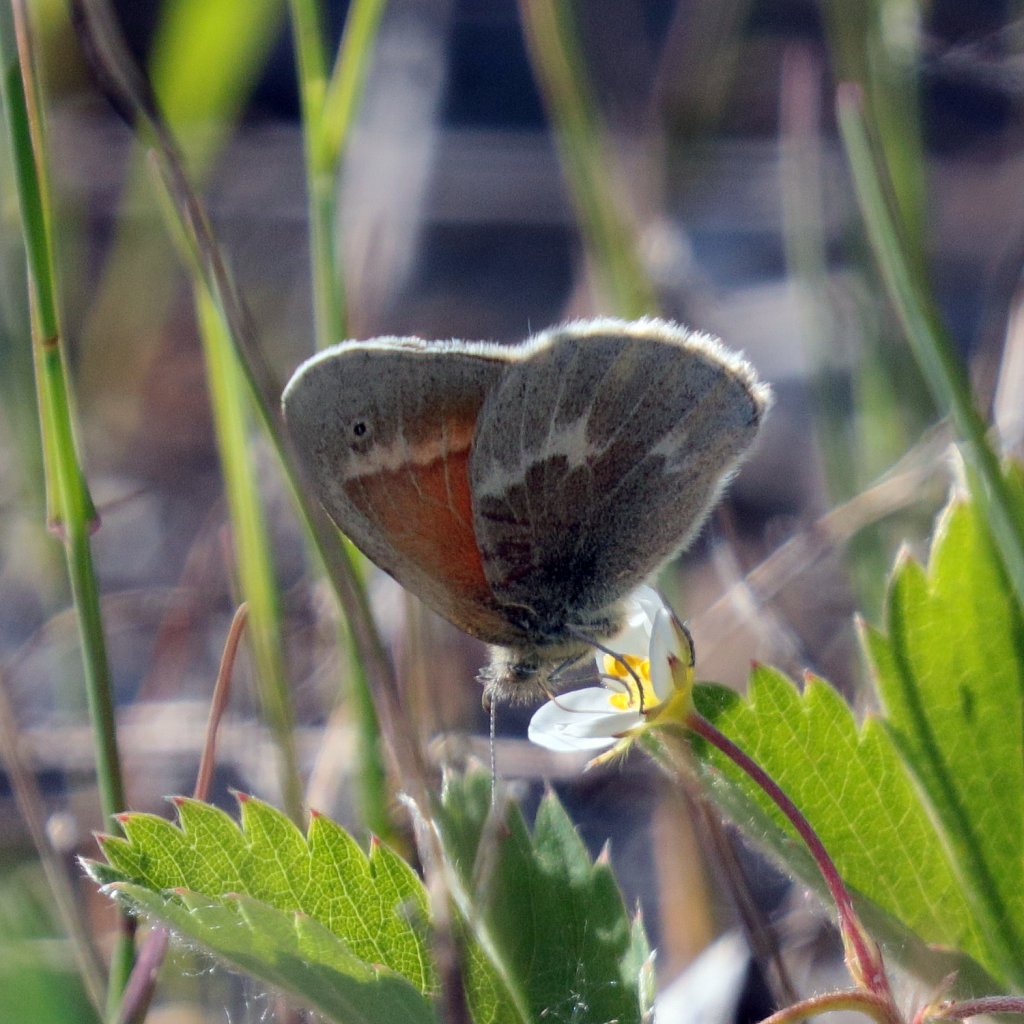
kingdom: Animalia
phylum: Arthropoda
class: Insecta
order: Lepidoptera
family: Nymphalidae
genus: Coenonympha
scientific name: Coenonympha tullia
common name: Large Heath
